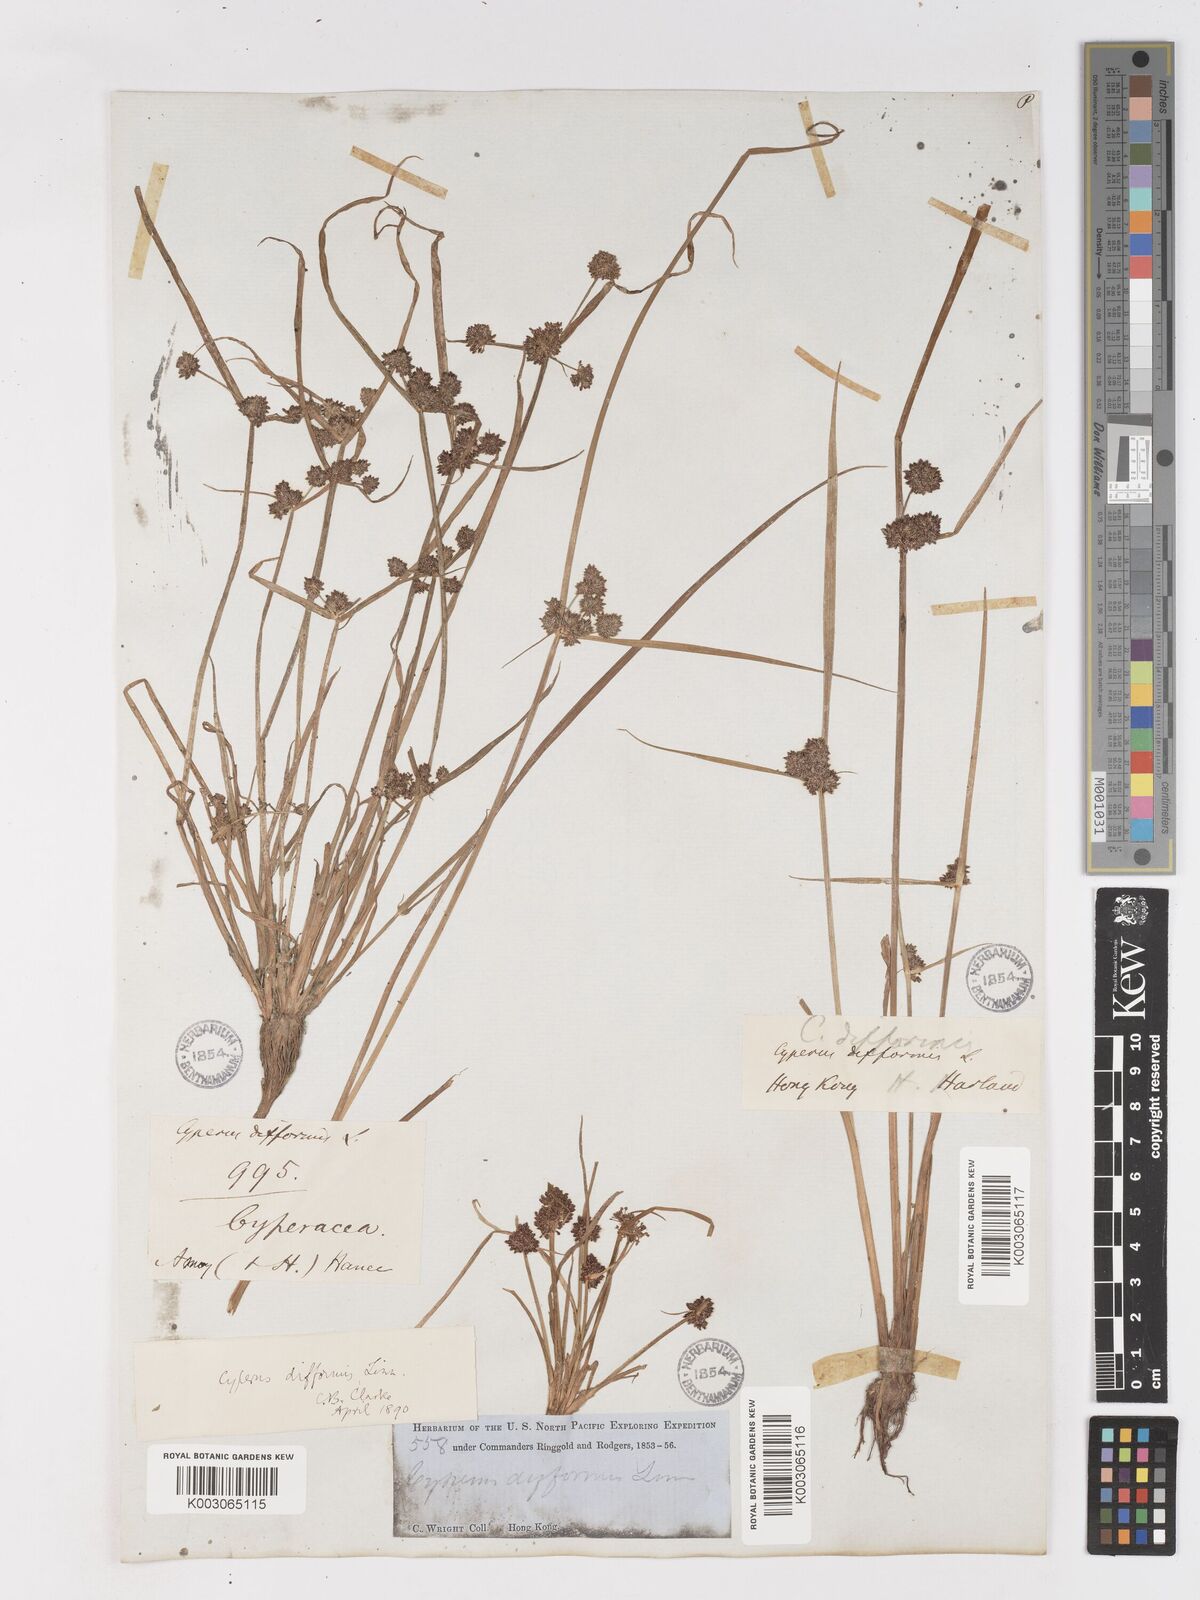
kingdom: Plantae
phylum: Tracheophyta
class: Liliopsida
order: Poales
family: Cyperaceae
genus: Cyperus
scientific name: Cyperus difformis
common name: Variable flatsedge
